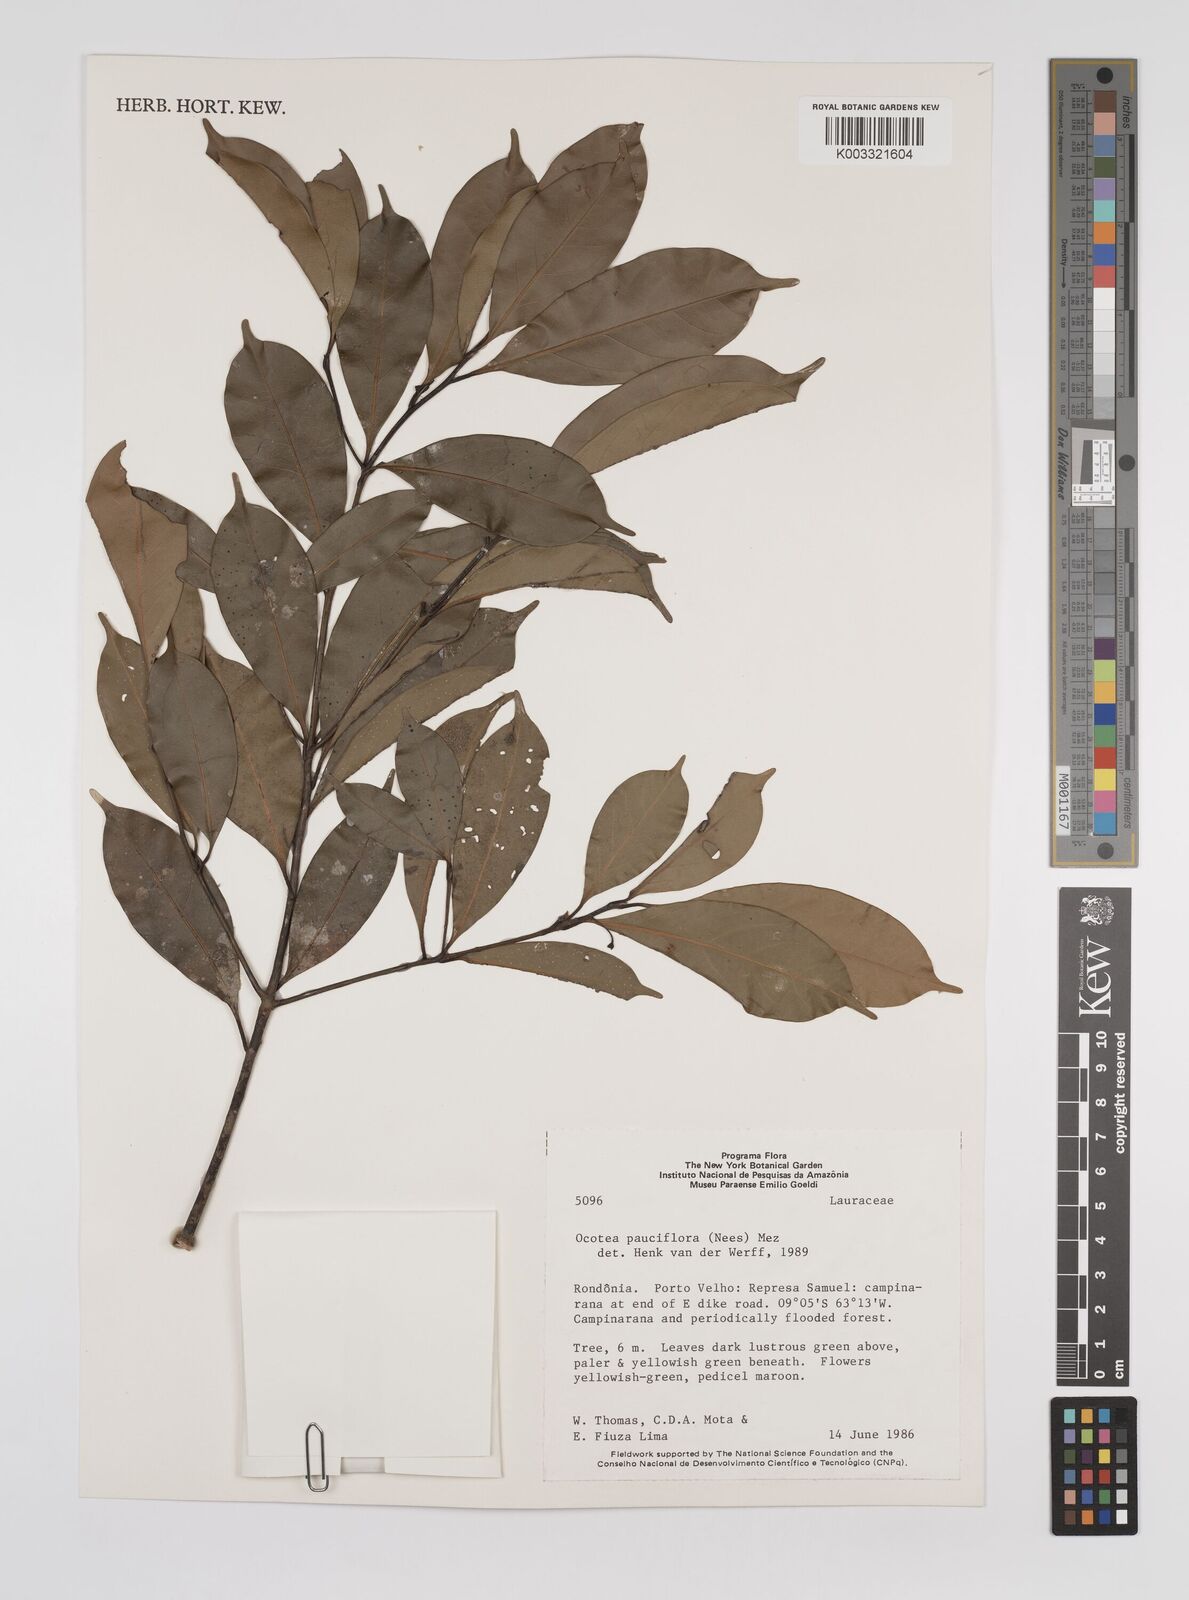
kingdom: Plantae
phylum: Tracheophyta
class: Magnoliopsida
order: Laurales
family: Lauraceae
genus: Ocotea
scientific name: Ocotea pauciflora
